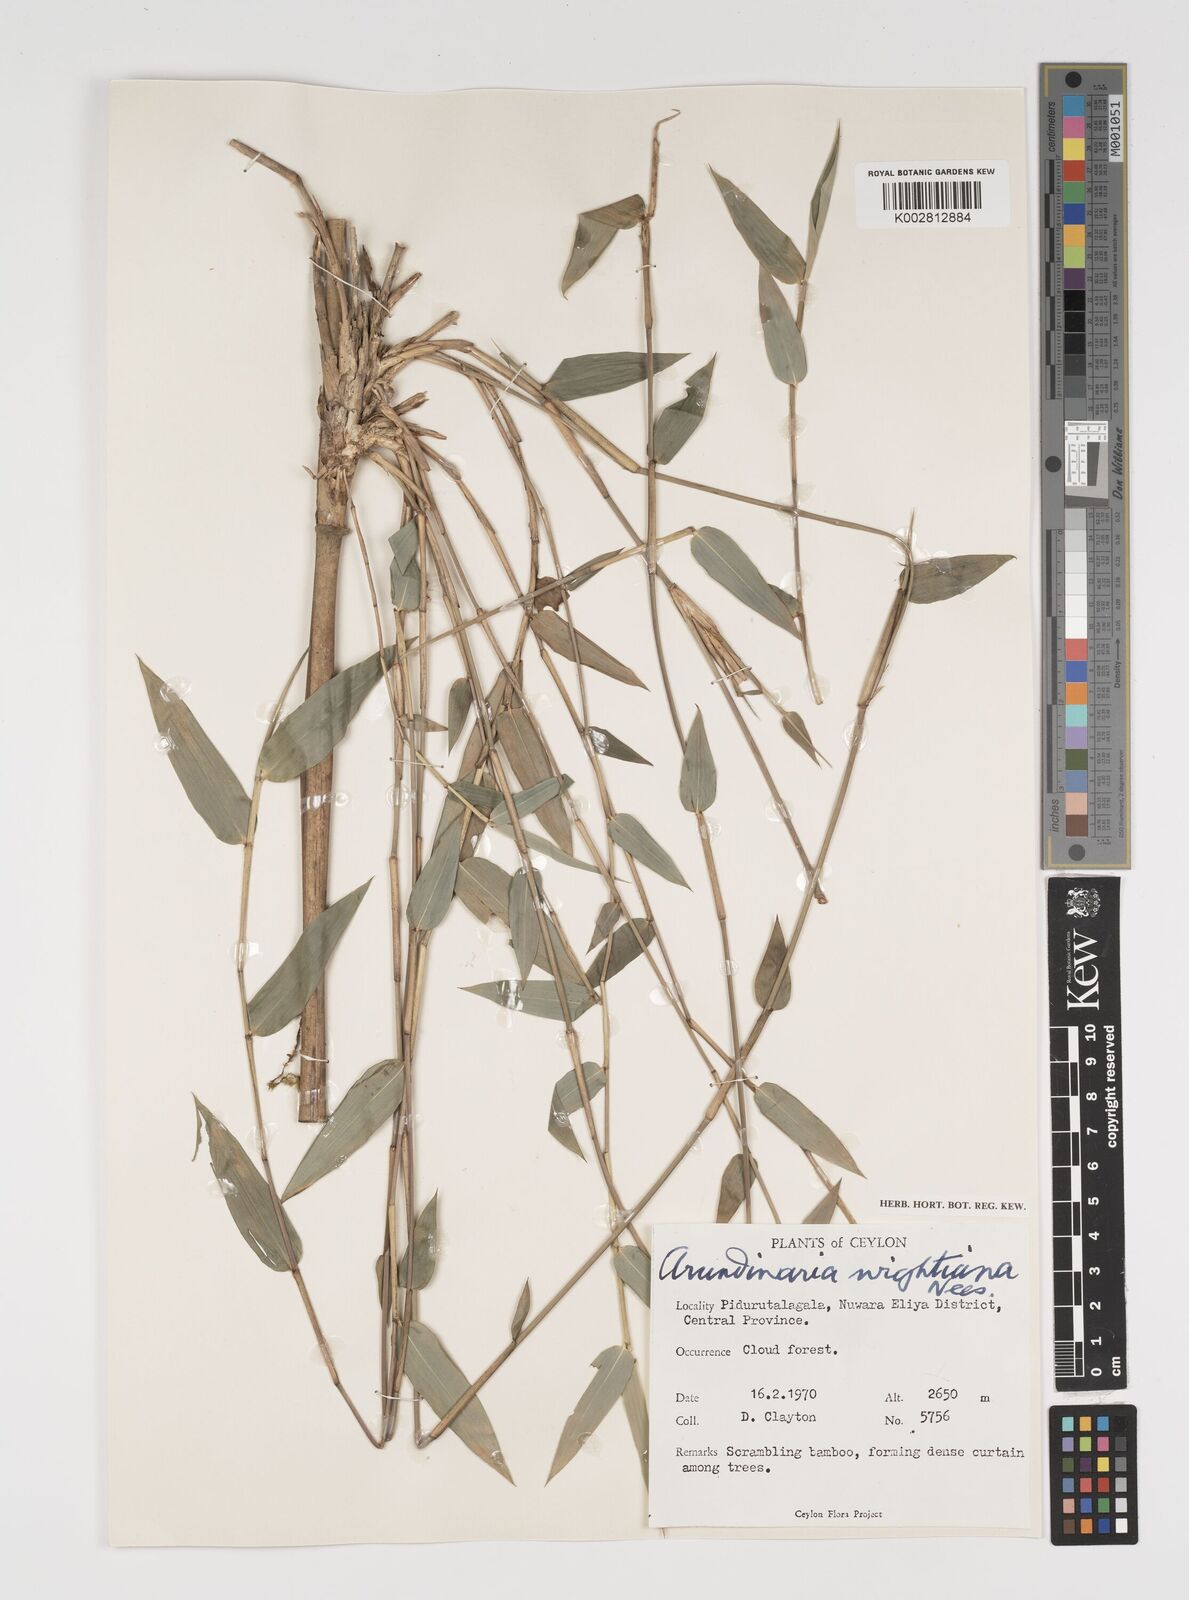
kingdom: Plantae
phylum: Tracheophyta
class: Liliopsida
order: Poales
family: Poaceae
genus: Kuruna
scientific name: Kuruna scandens
